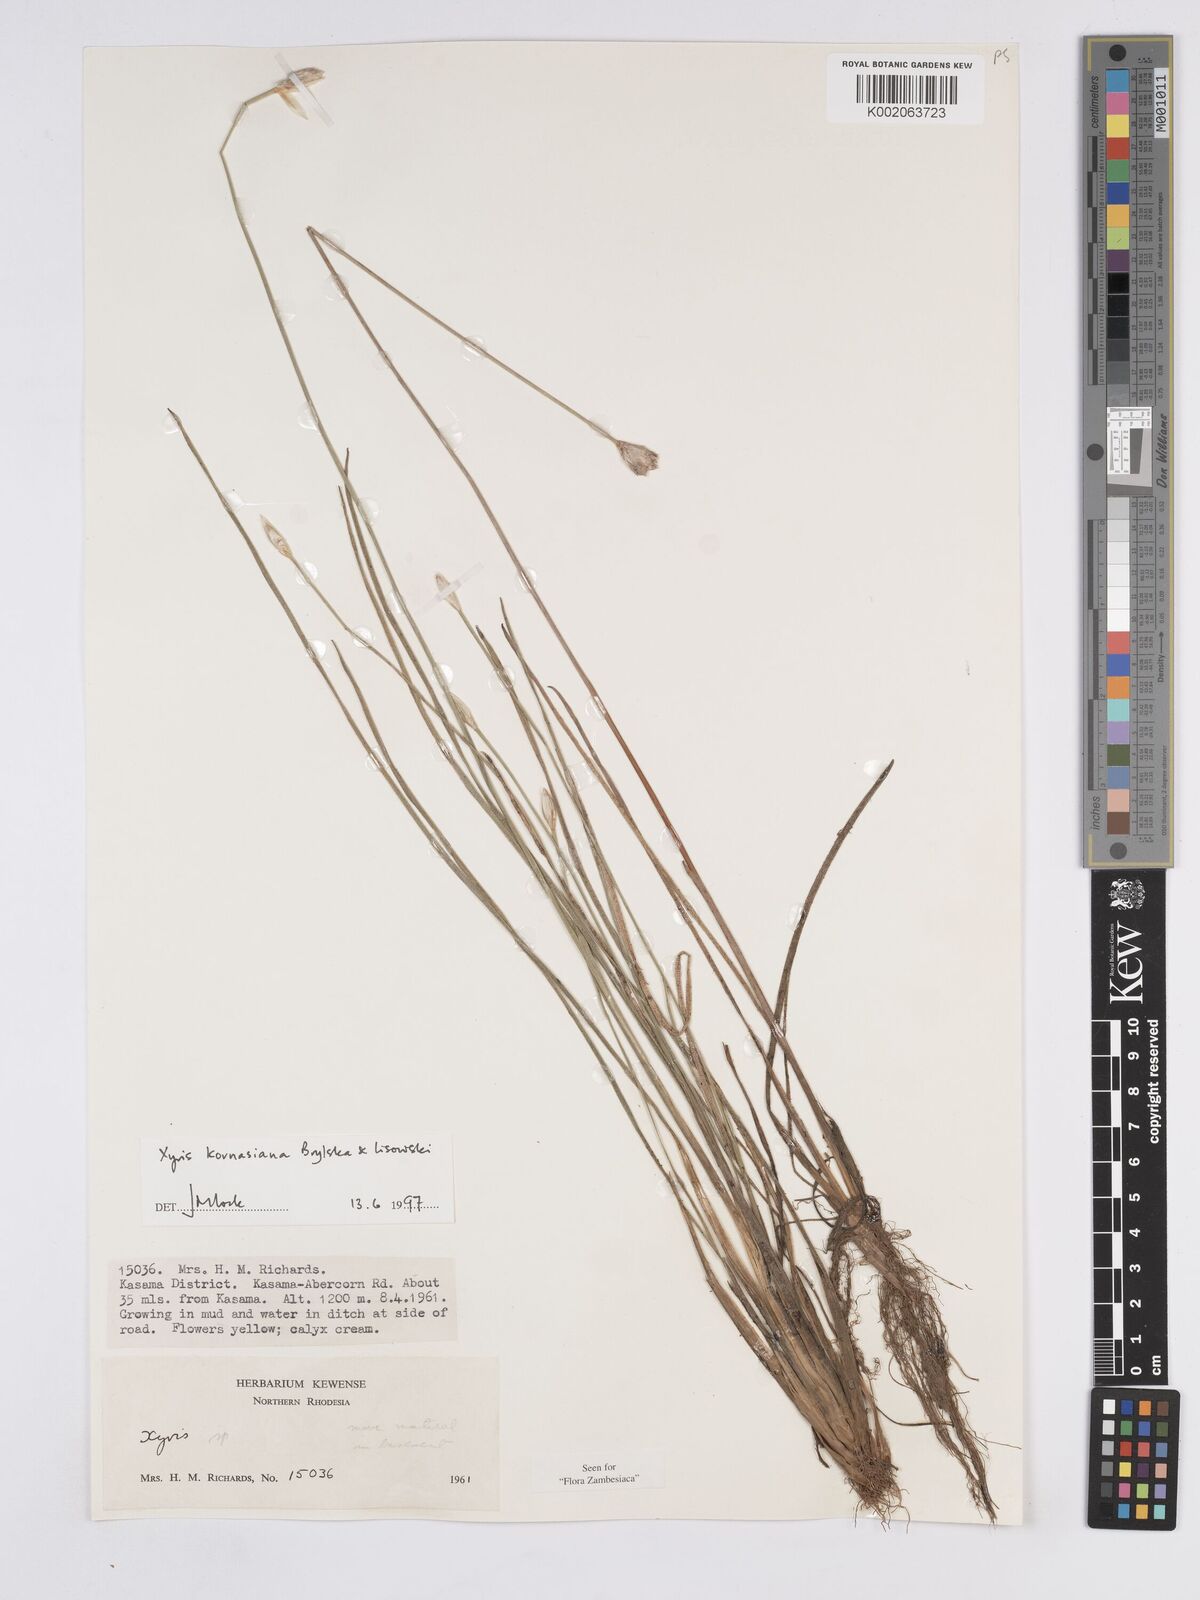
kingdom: Plantae
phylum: Tracheophyta
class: Liliopsida
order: Poales
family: Xyridaceae
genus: Xyris
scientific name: Xyris kornasiana
